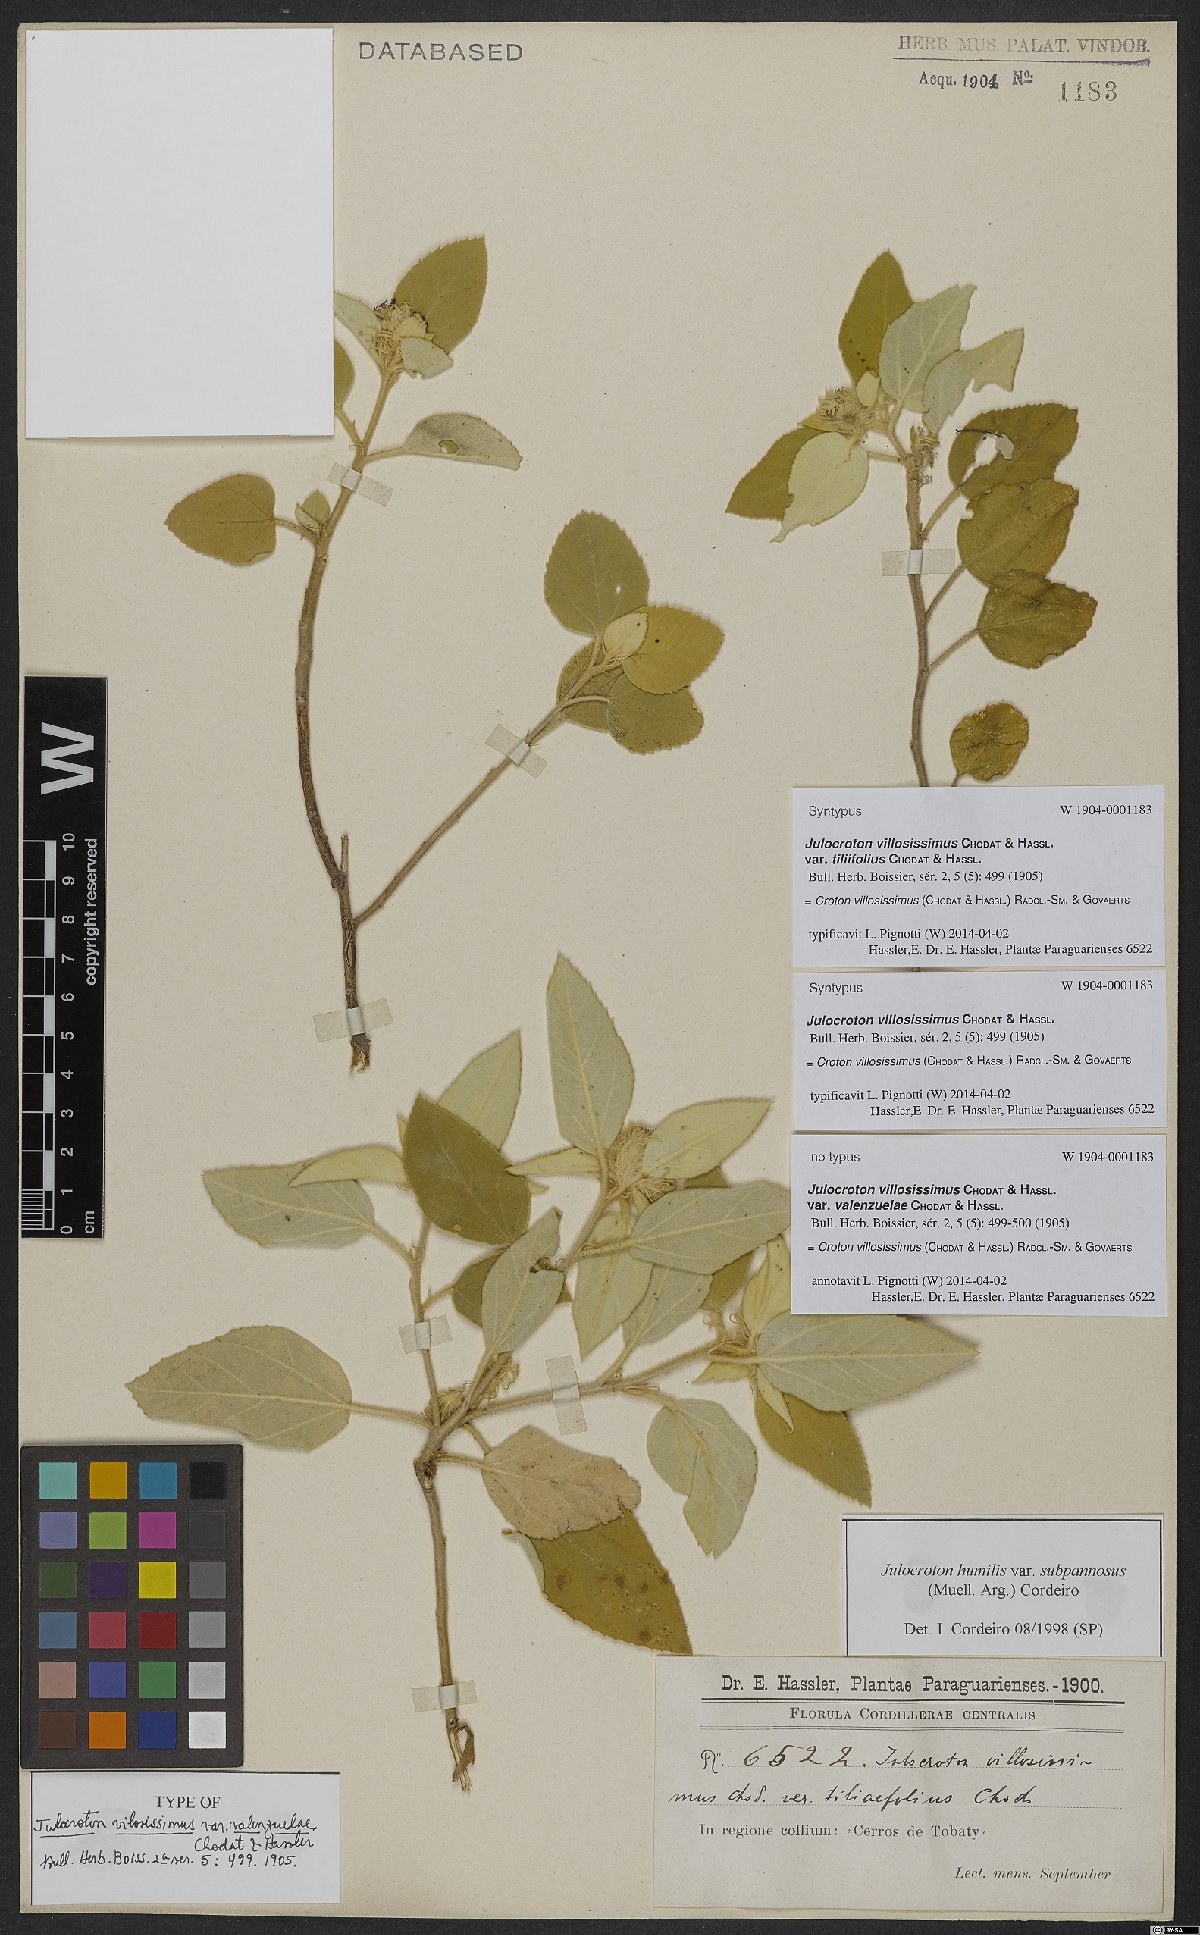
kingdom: Plantae
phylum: Tracheophyta
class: Magnoliopsida
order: Malpighiales
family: Euphorbiaceae
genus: Croton
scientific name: Croton villosissimus
